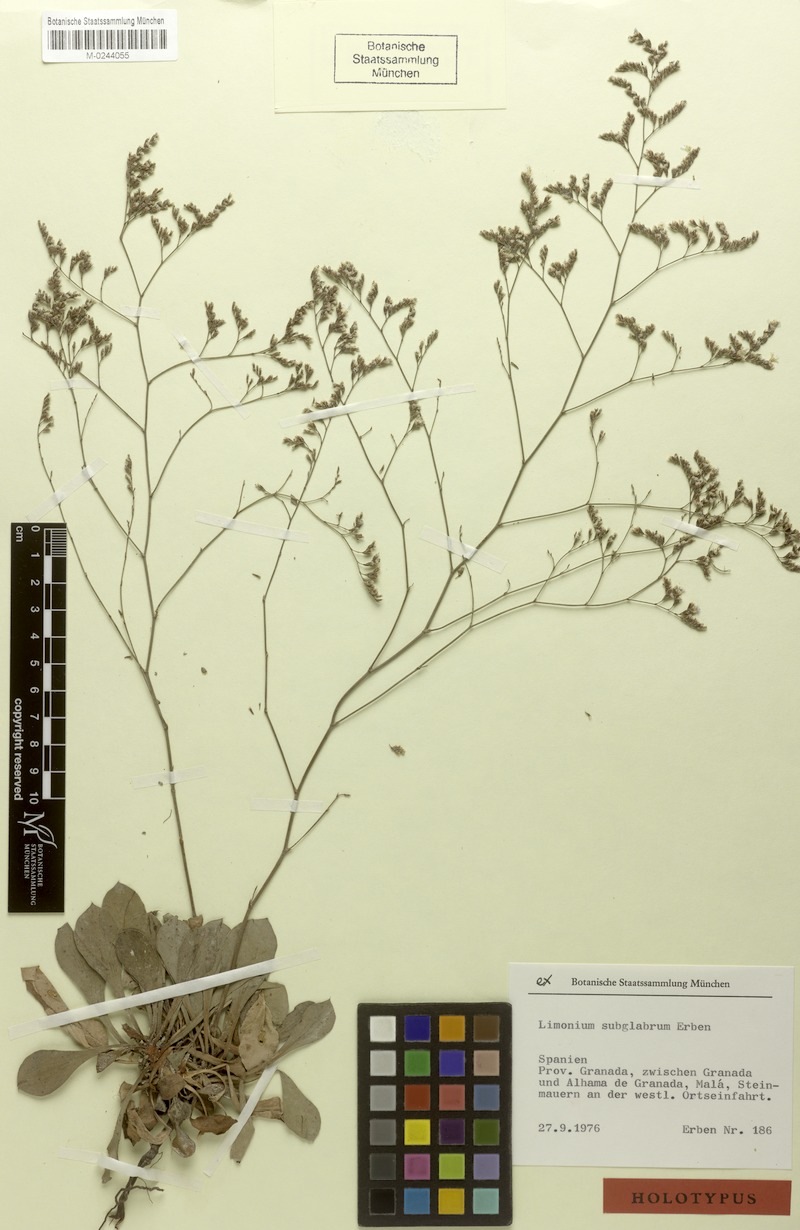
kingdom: Plantae
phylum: Tracheophyta
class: Magnoliopsida
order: Caryophyllales
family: Plumbaginaceae
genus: Limonium
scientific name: Limonium subglabrum
